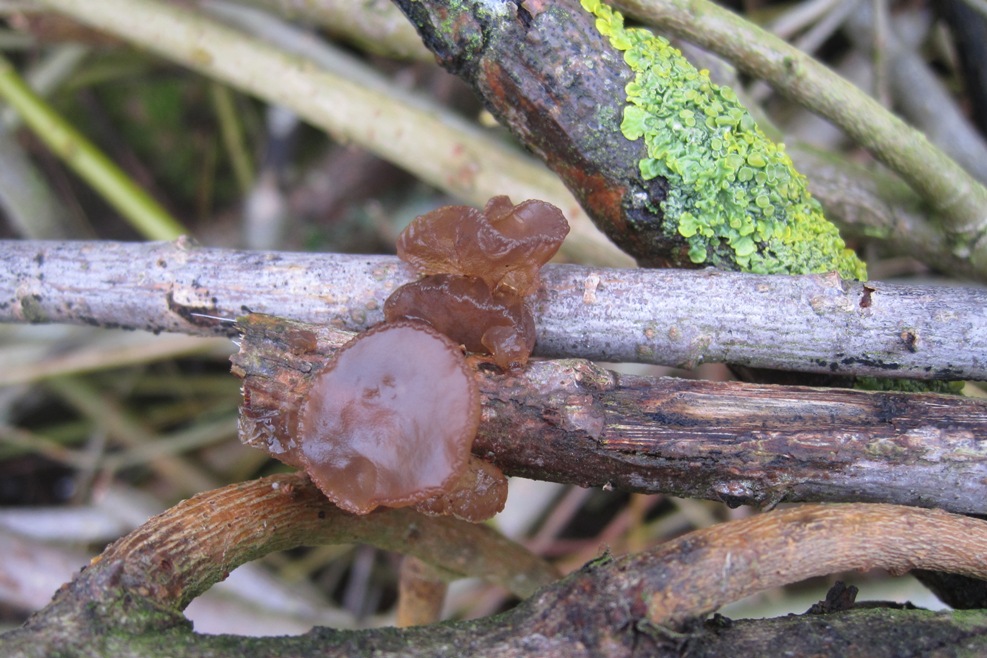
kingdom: Fungi
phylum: Basidiomycota
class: Agaricomycetes
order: Auriculariales
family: Auriculariaceae
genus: Exidia
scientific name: Exidia recisa
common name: pile-bævretop
